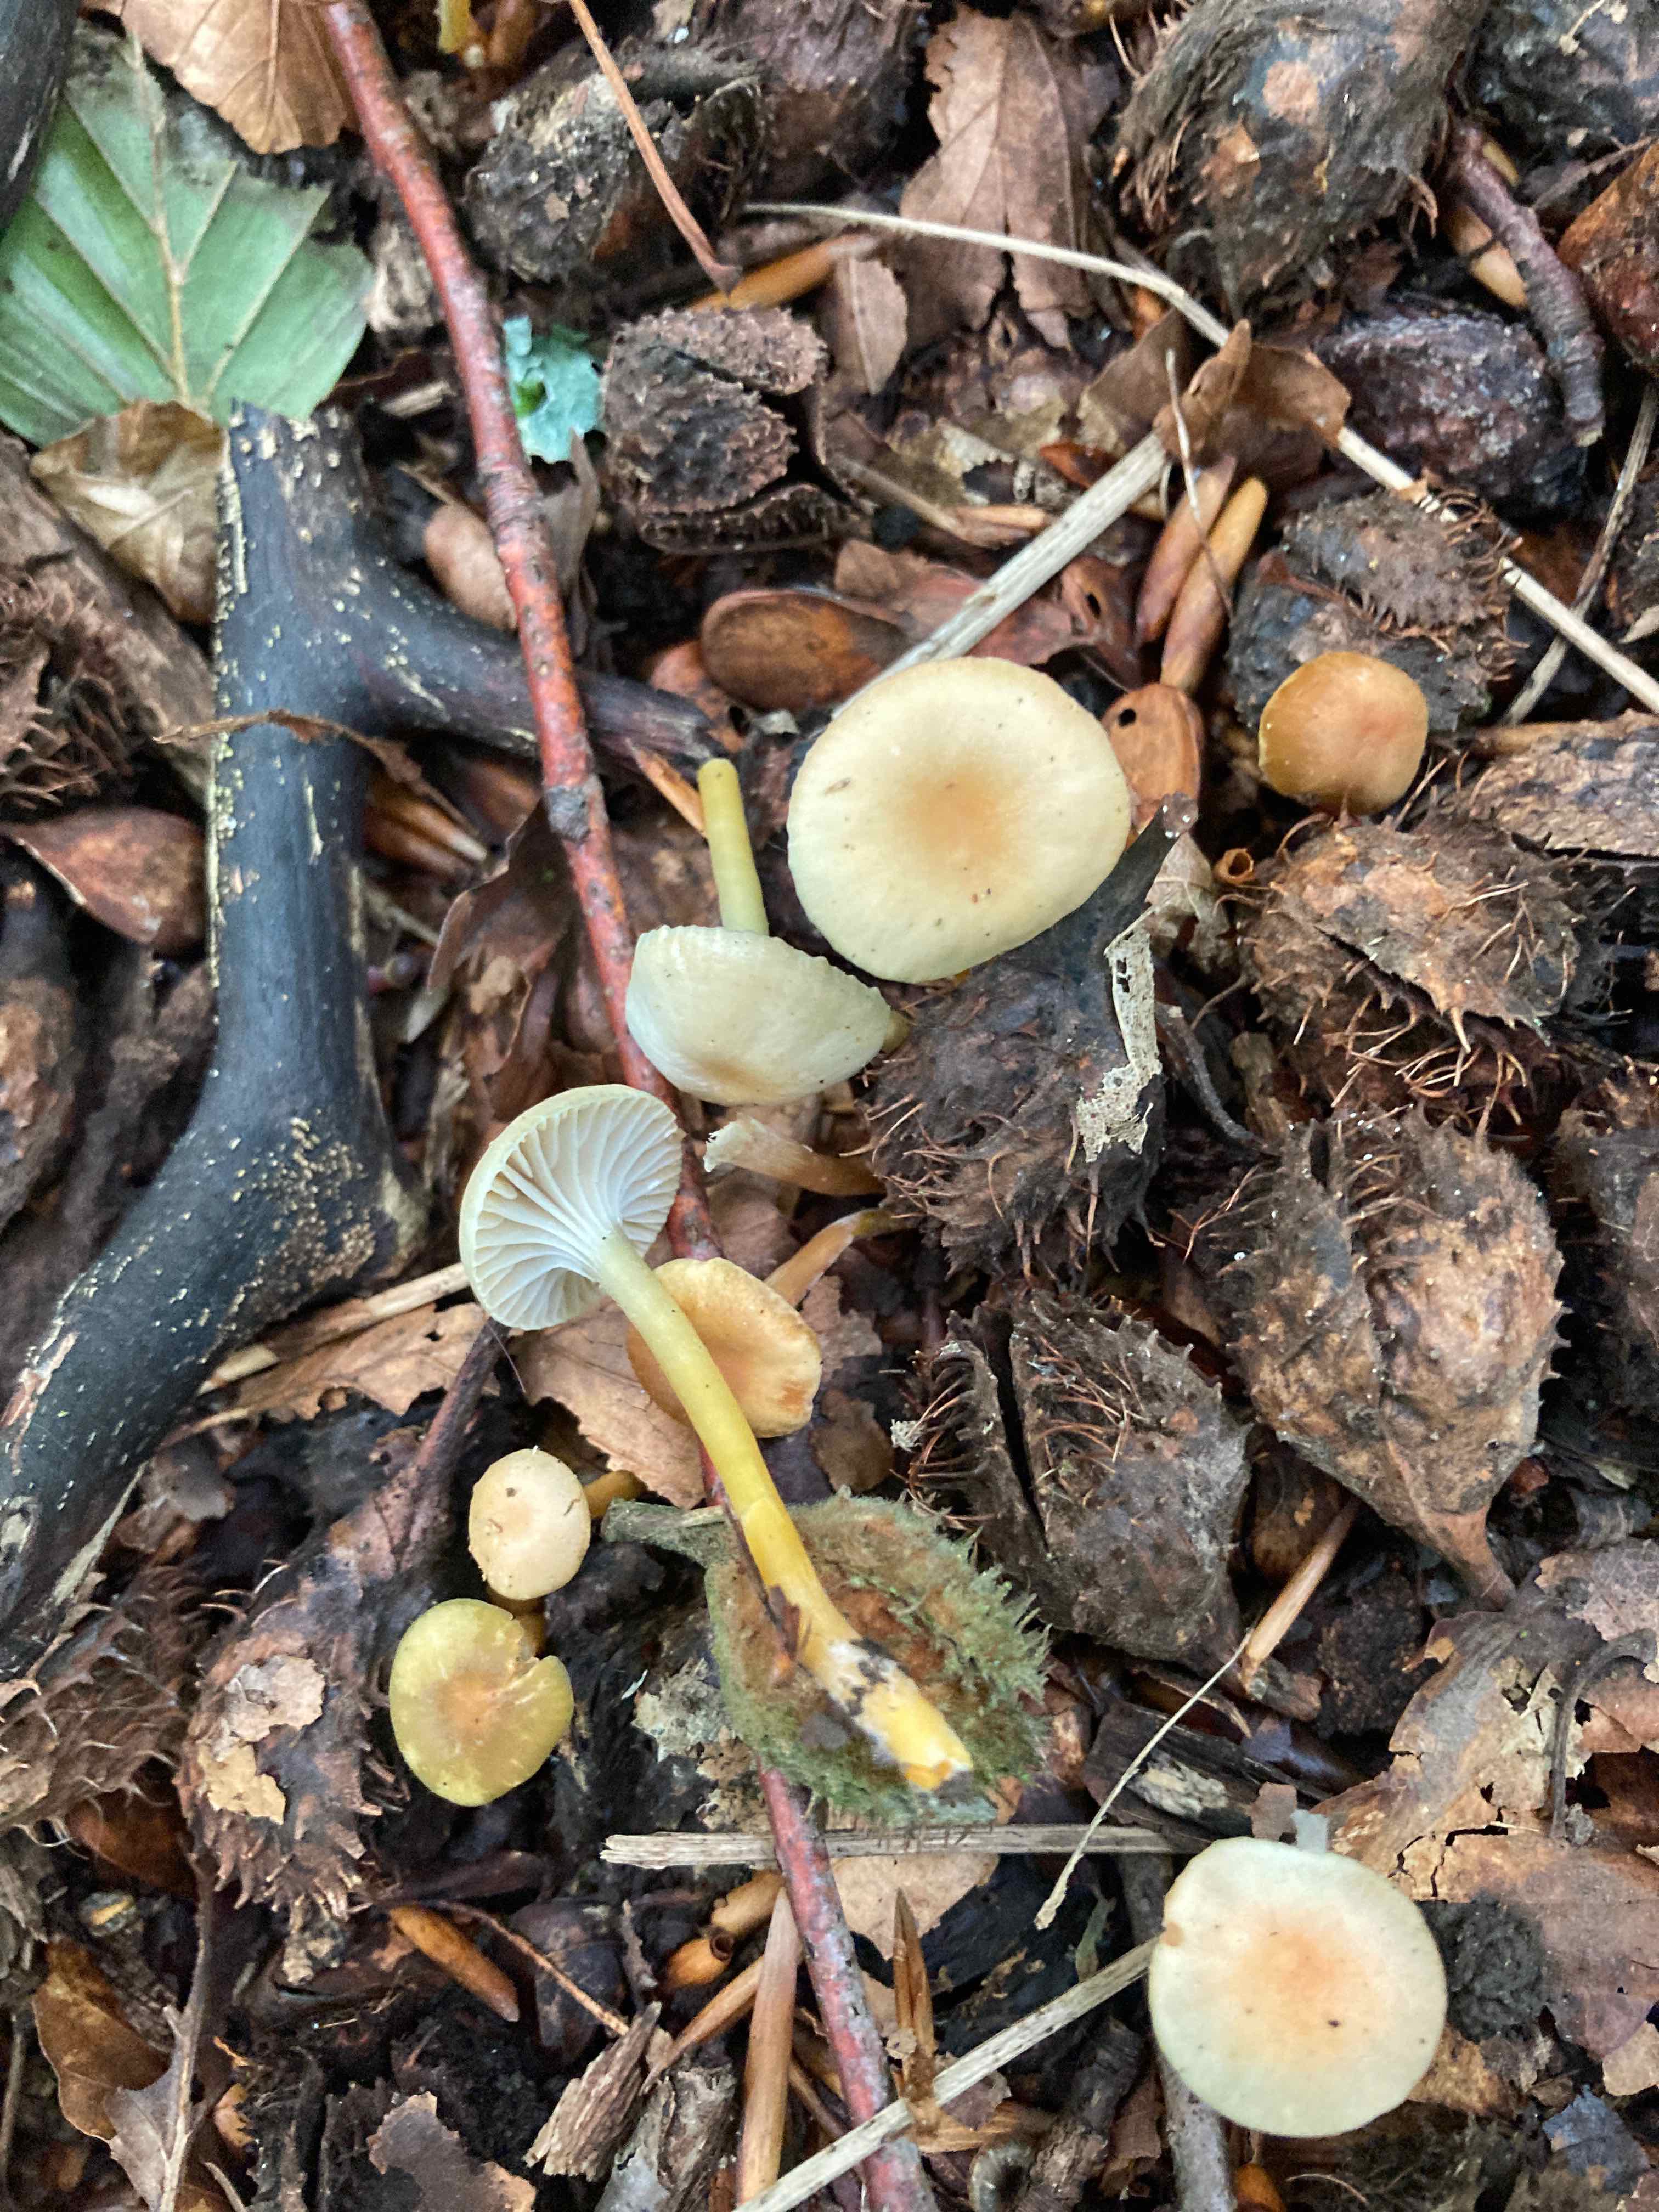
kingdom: Fungi
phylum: Basidiomycota
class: Agaricomycetes
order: Agaricales
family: Hygrophoraceae
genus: Gliophorus
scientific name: Gliophorus laetus
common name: brusk-vokshat
